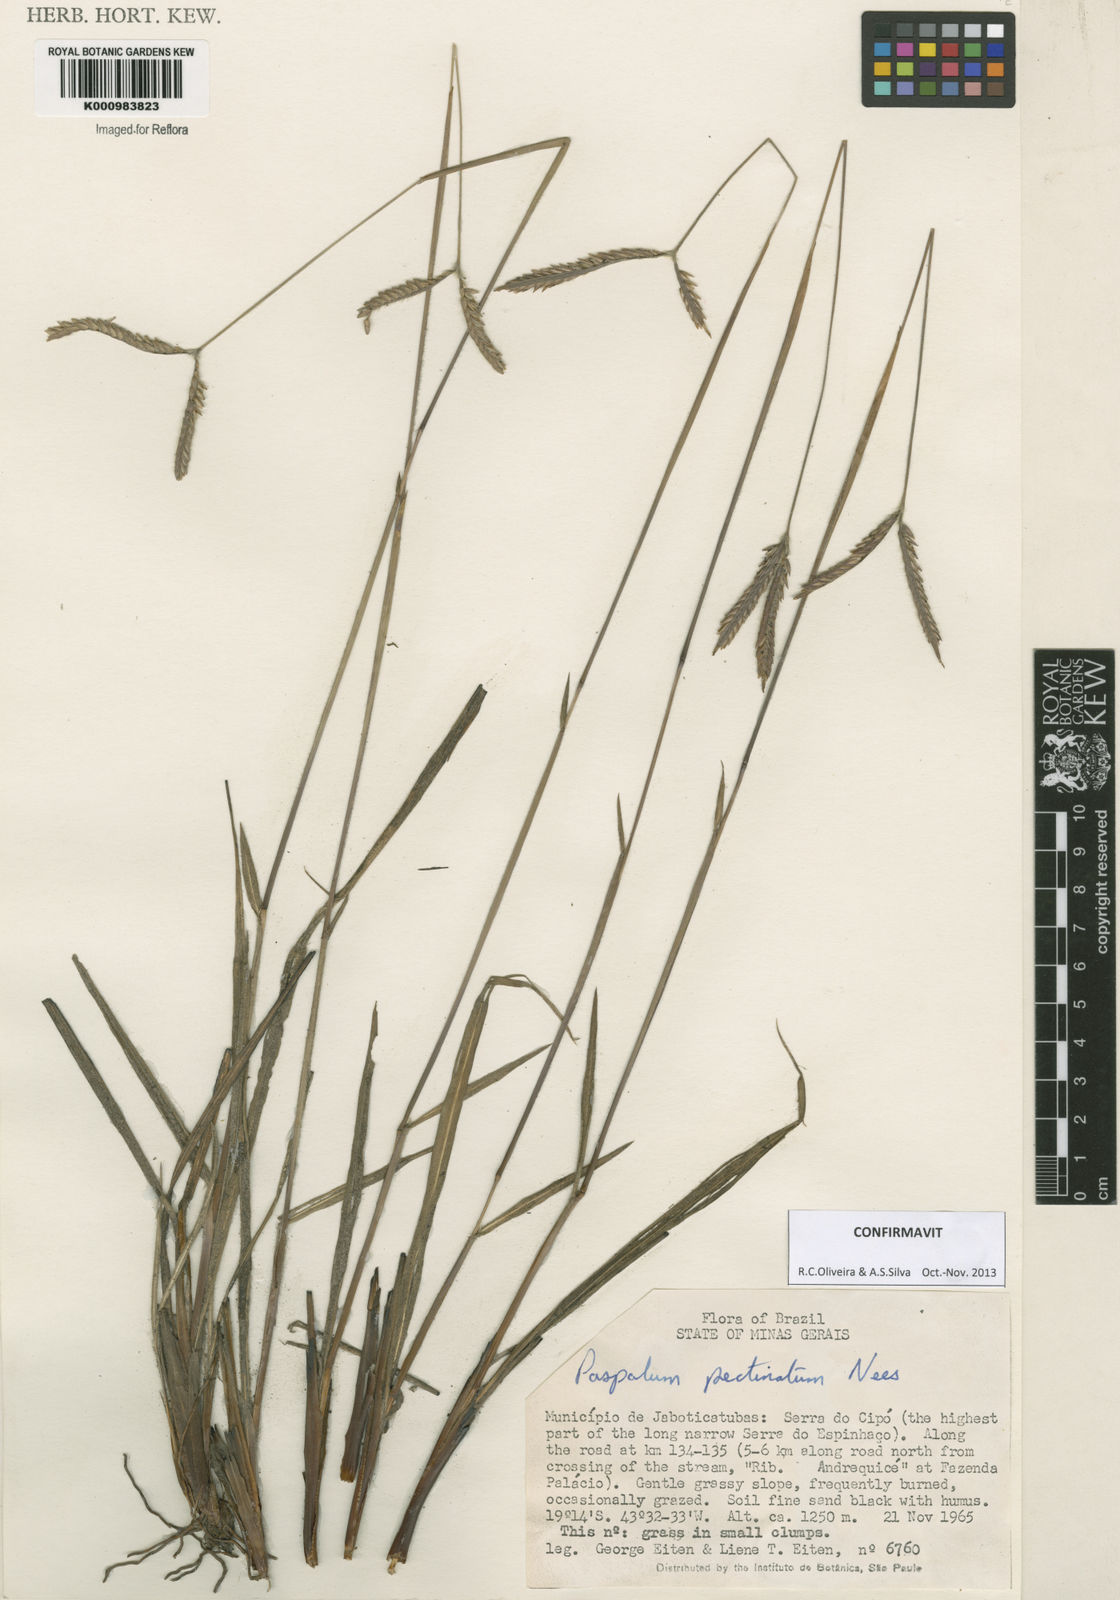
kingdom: Plantae
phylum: Tracheophyta
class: Liliopsida
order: Poales
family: Poaceae
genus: Paspalum
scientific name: Paspalum
